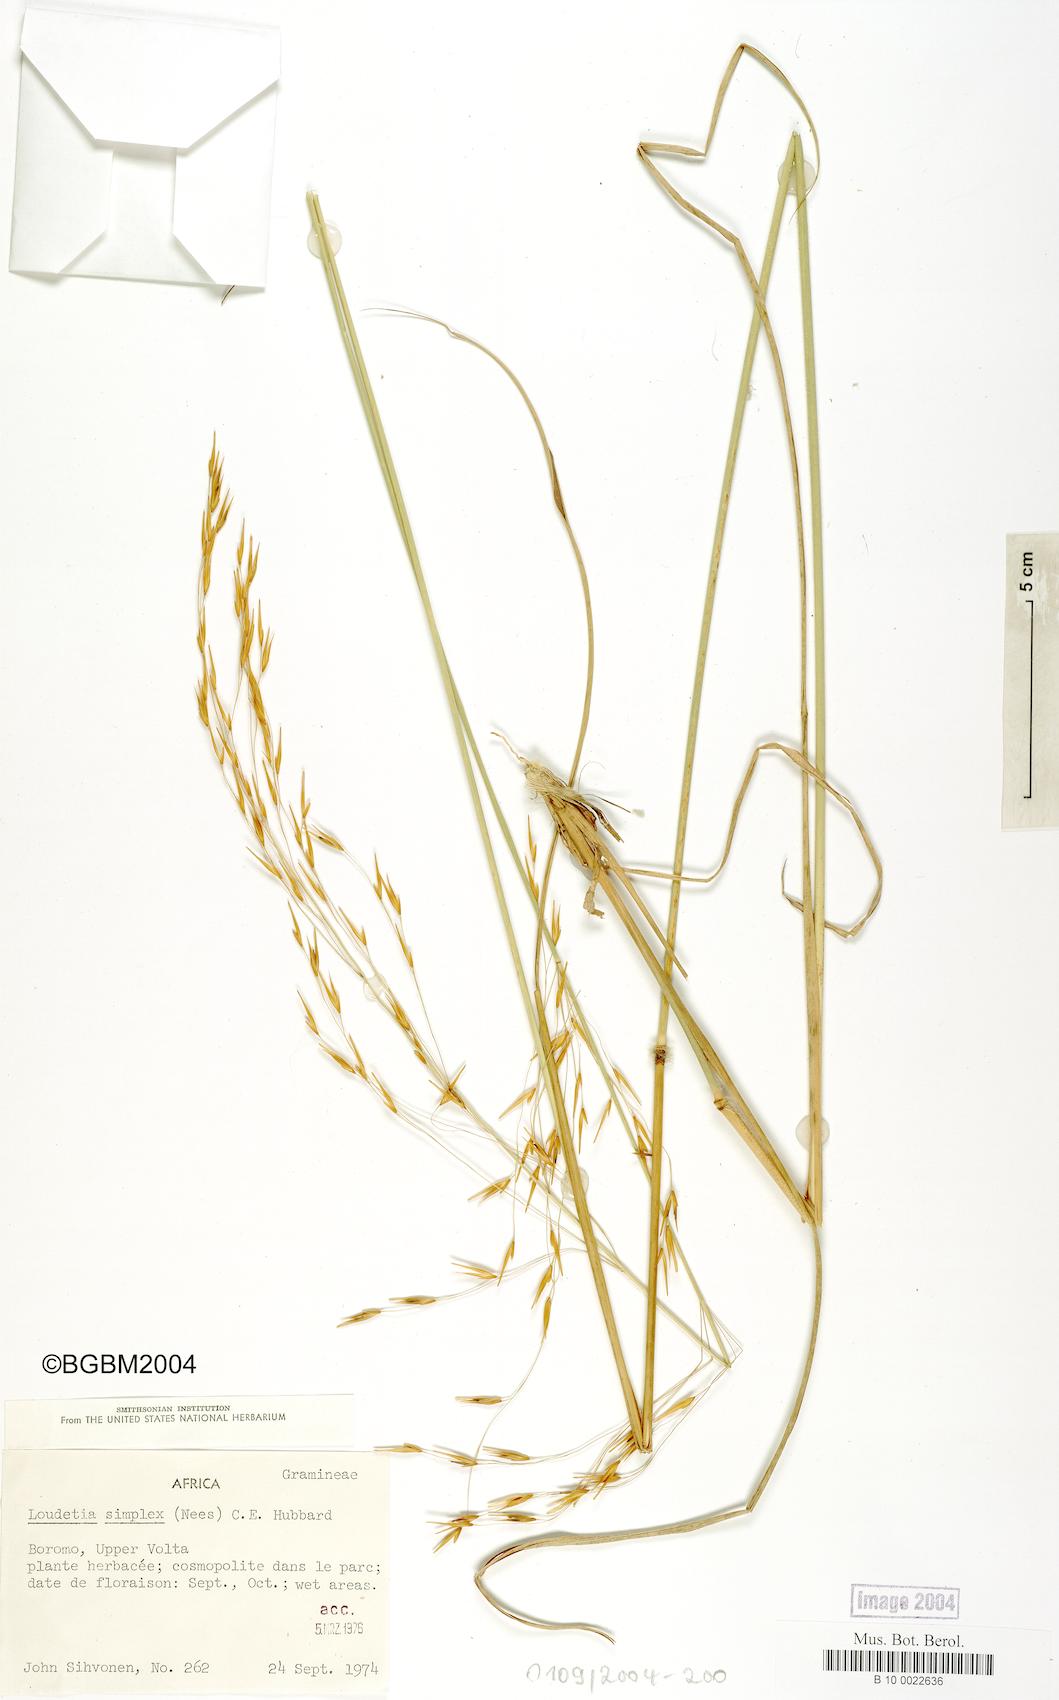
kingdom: Plantae
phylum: Tracheophyta
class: Liliopsida
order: Poales
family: Poaceae
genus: Loudetia
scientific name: Loudetia simplex
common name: Common russet grass
